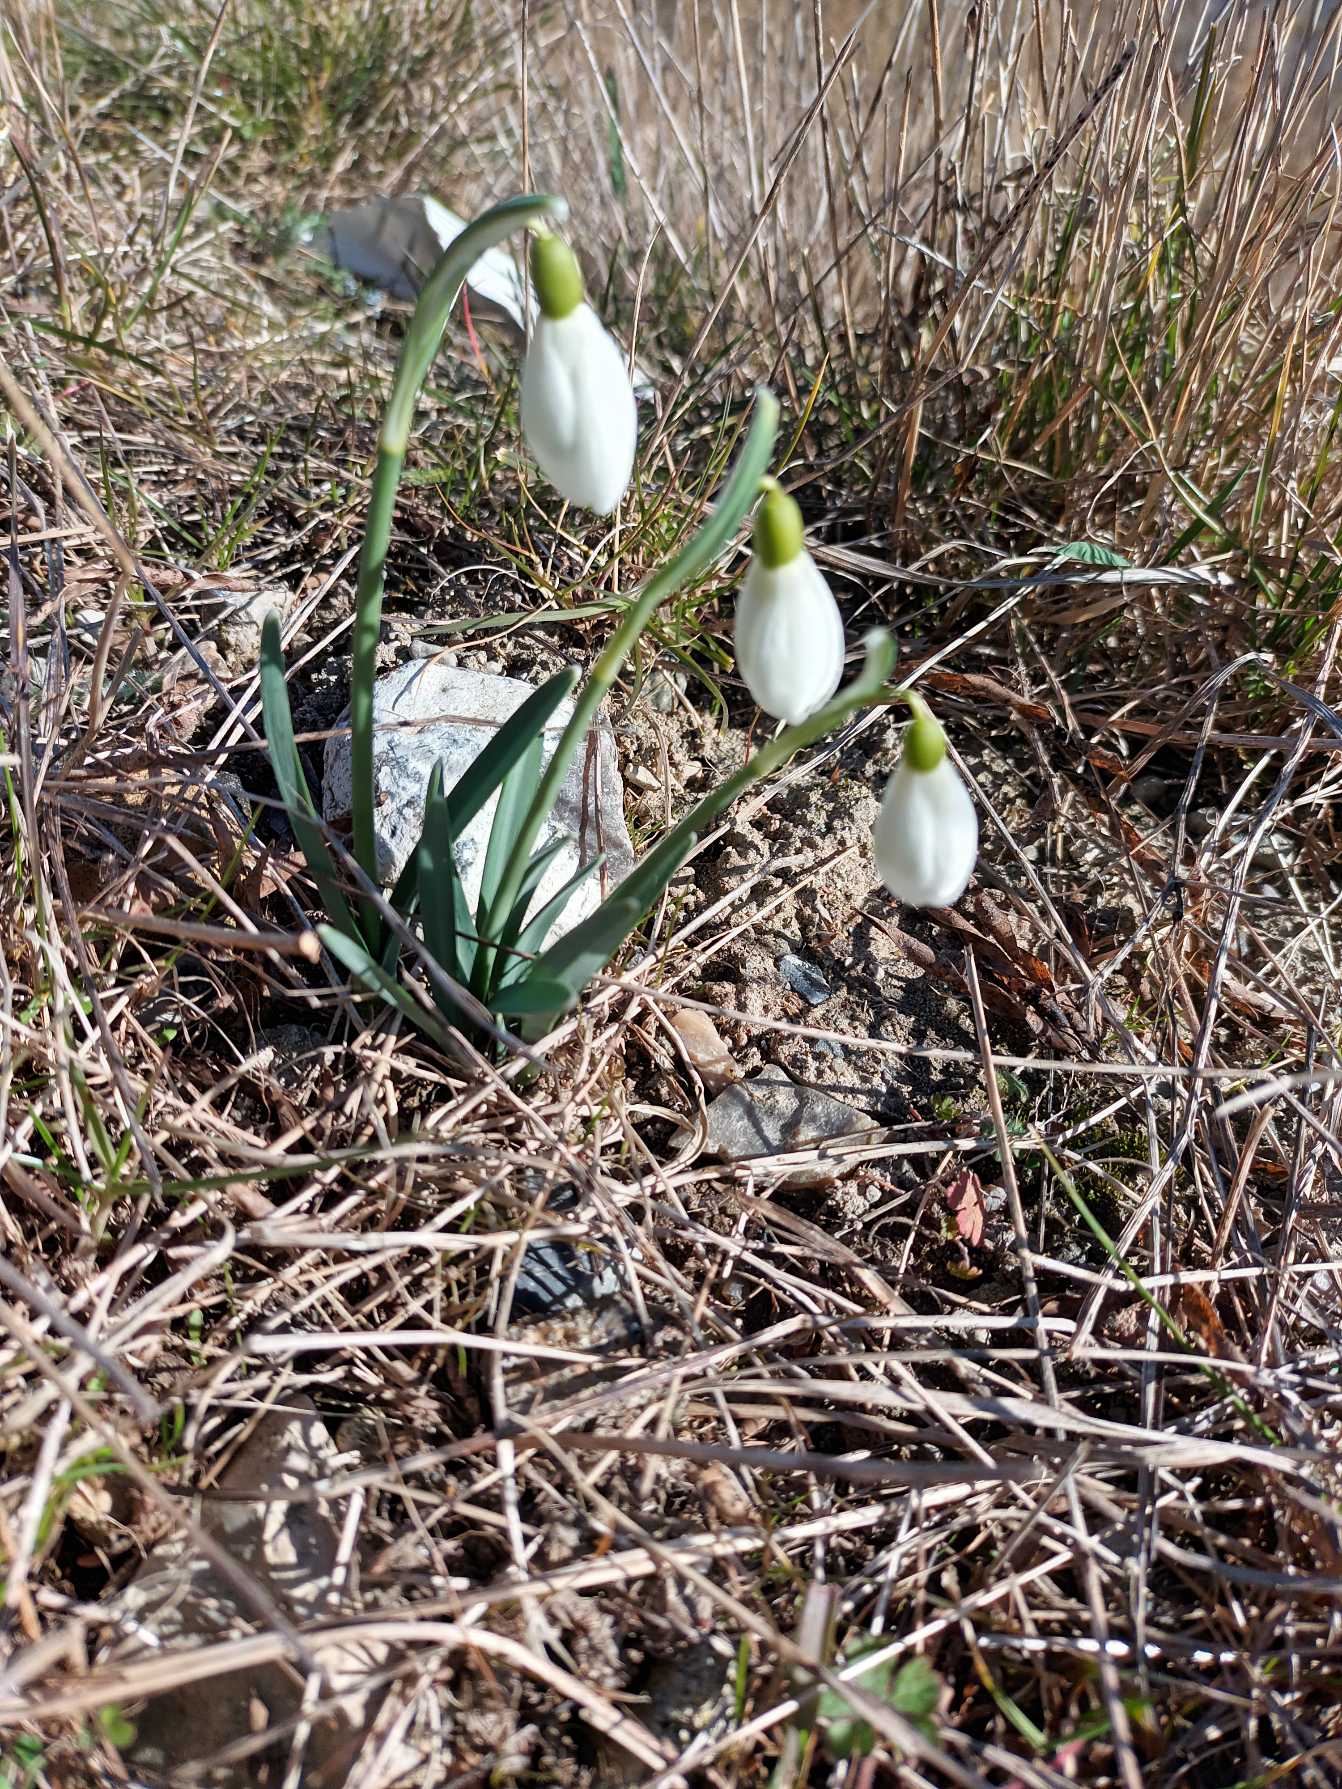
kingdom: Plantae
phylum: Tracheophyta
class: Liliopsida
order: Asparagales
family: Amaryllidaceae
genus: Galanthus
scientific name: Galanthus nivalis
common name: Vintergæk
